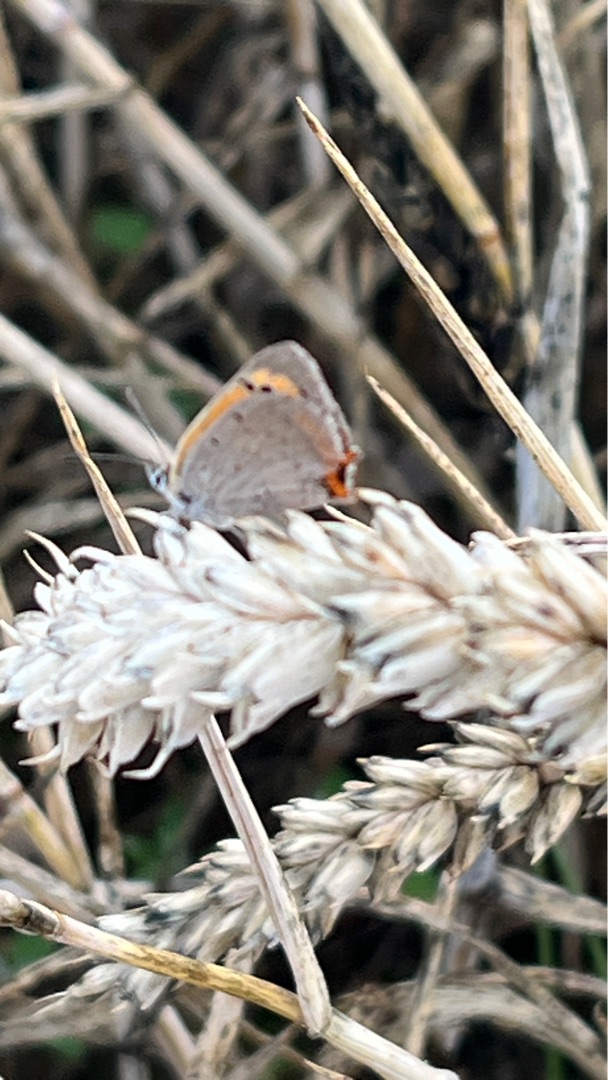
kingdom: Animalia
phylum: Arthropoda
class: Insecta
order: Lepidoptera
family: Lycaenidae
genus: Lycaena
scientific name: Lycaena phlaeas
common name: Lille ildfugl
